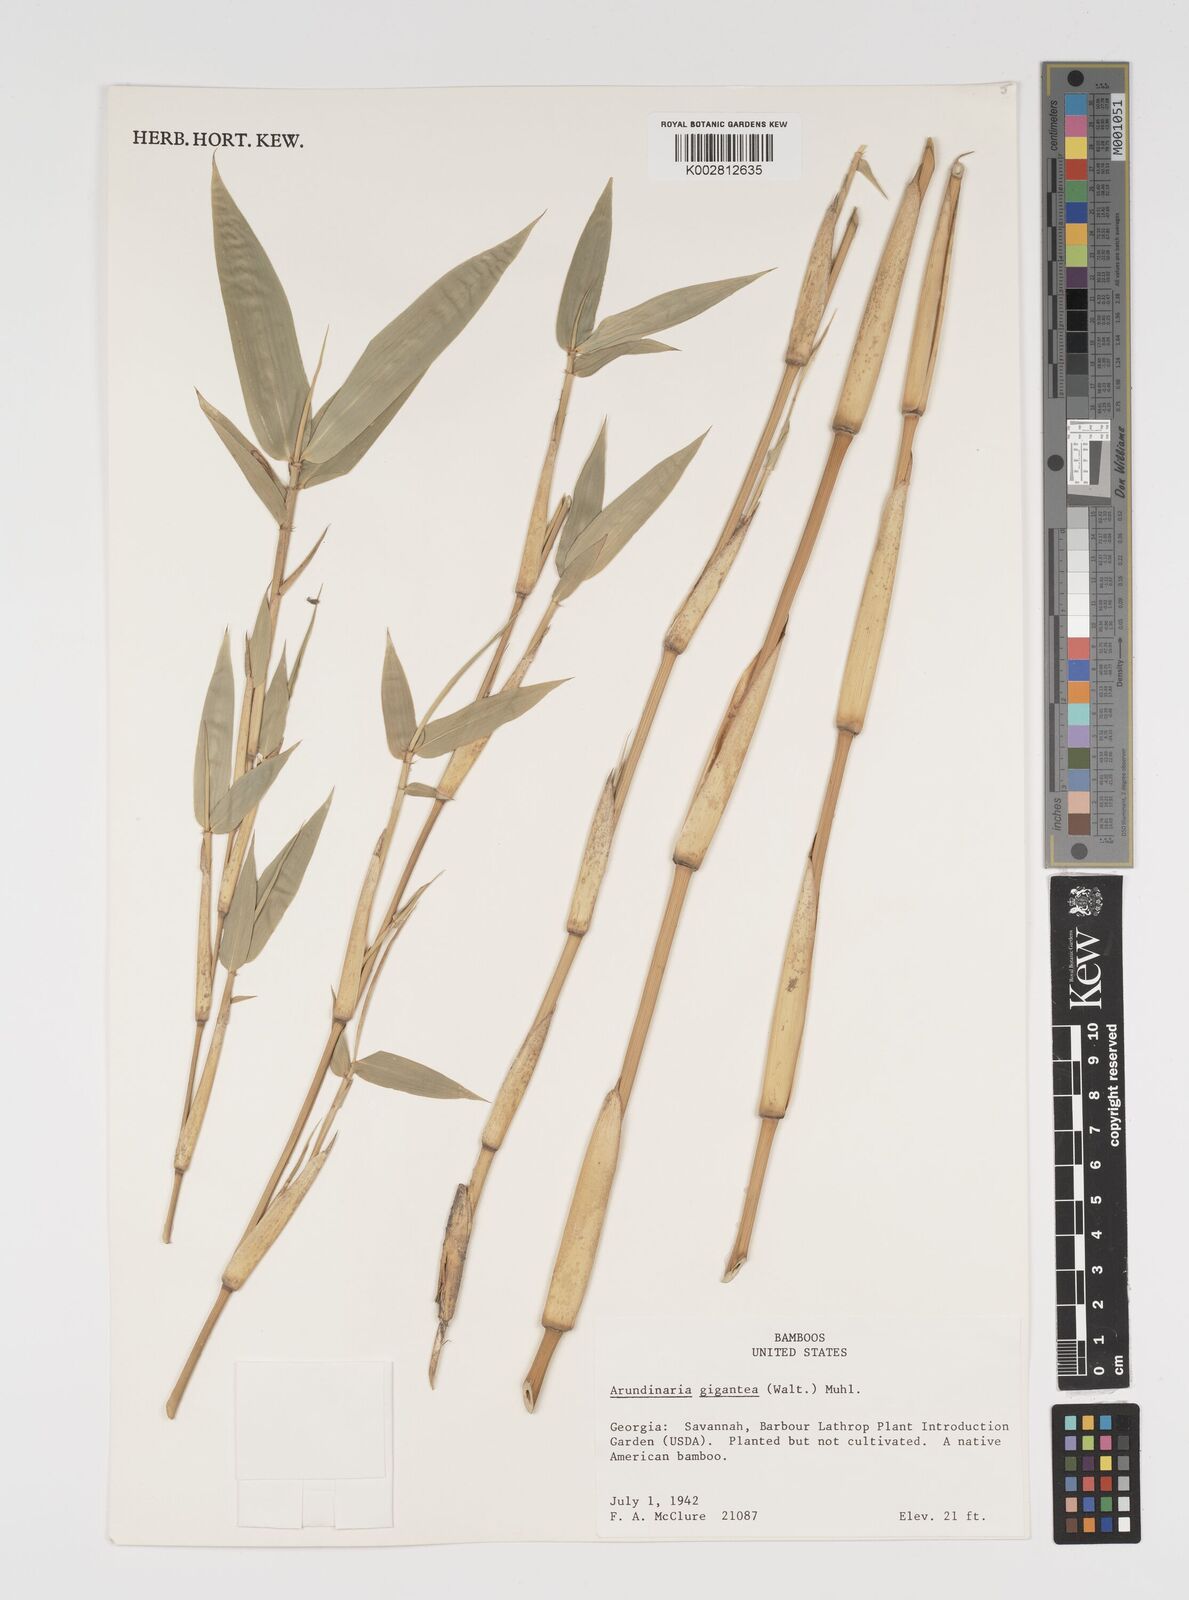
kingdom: Plantae
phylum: Tracheophyta
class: Liliopsida
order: Poales
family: Poaceae
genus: Arundinaria
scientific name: Arundinaria
